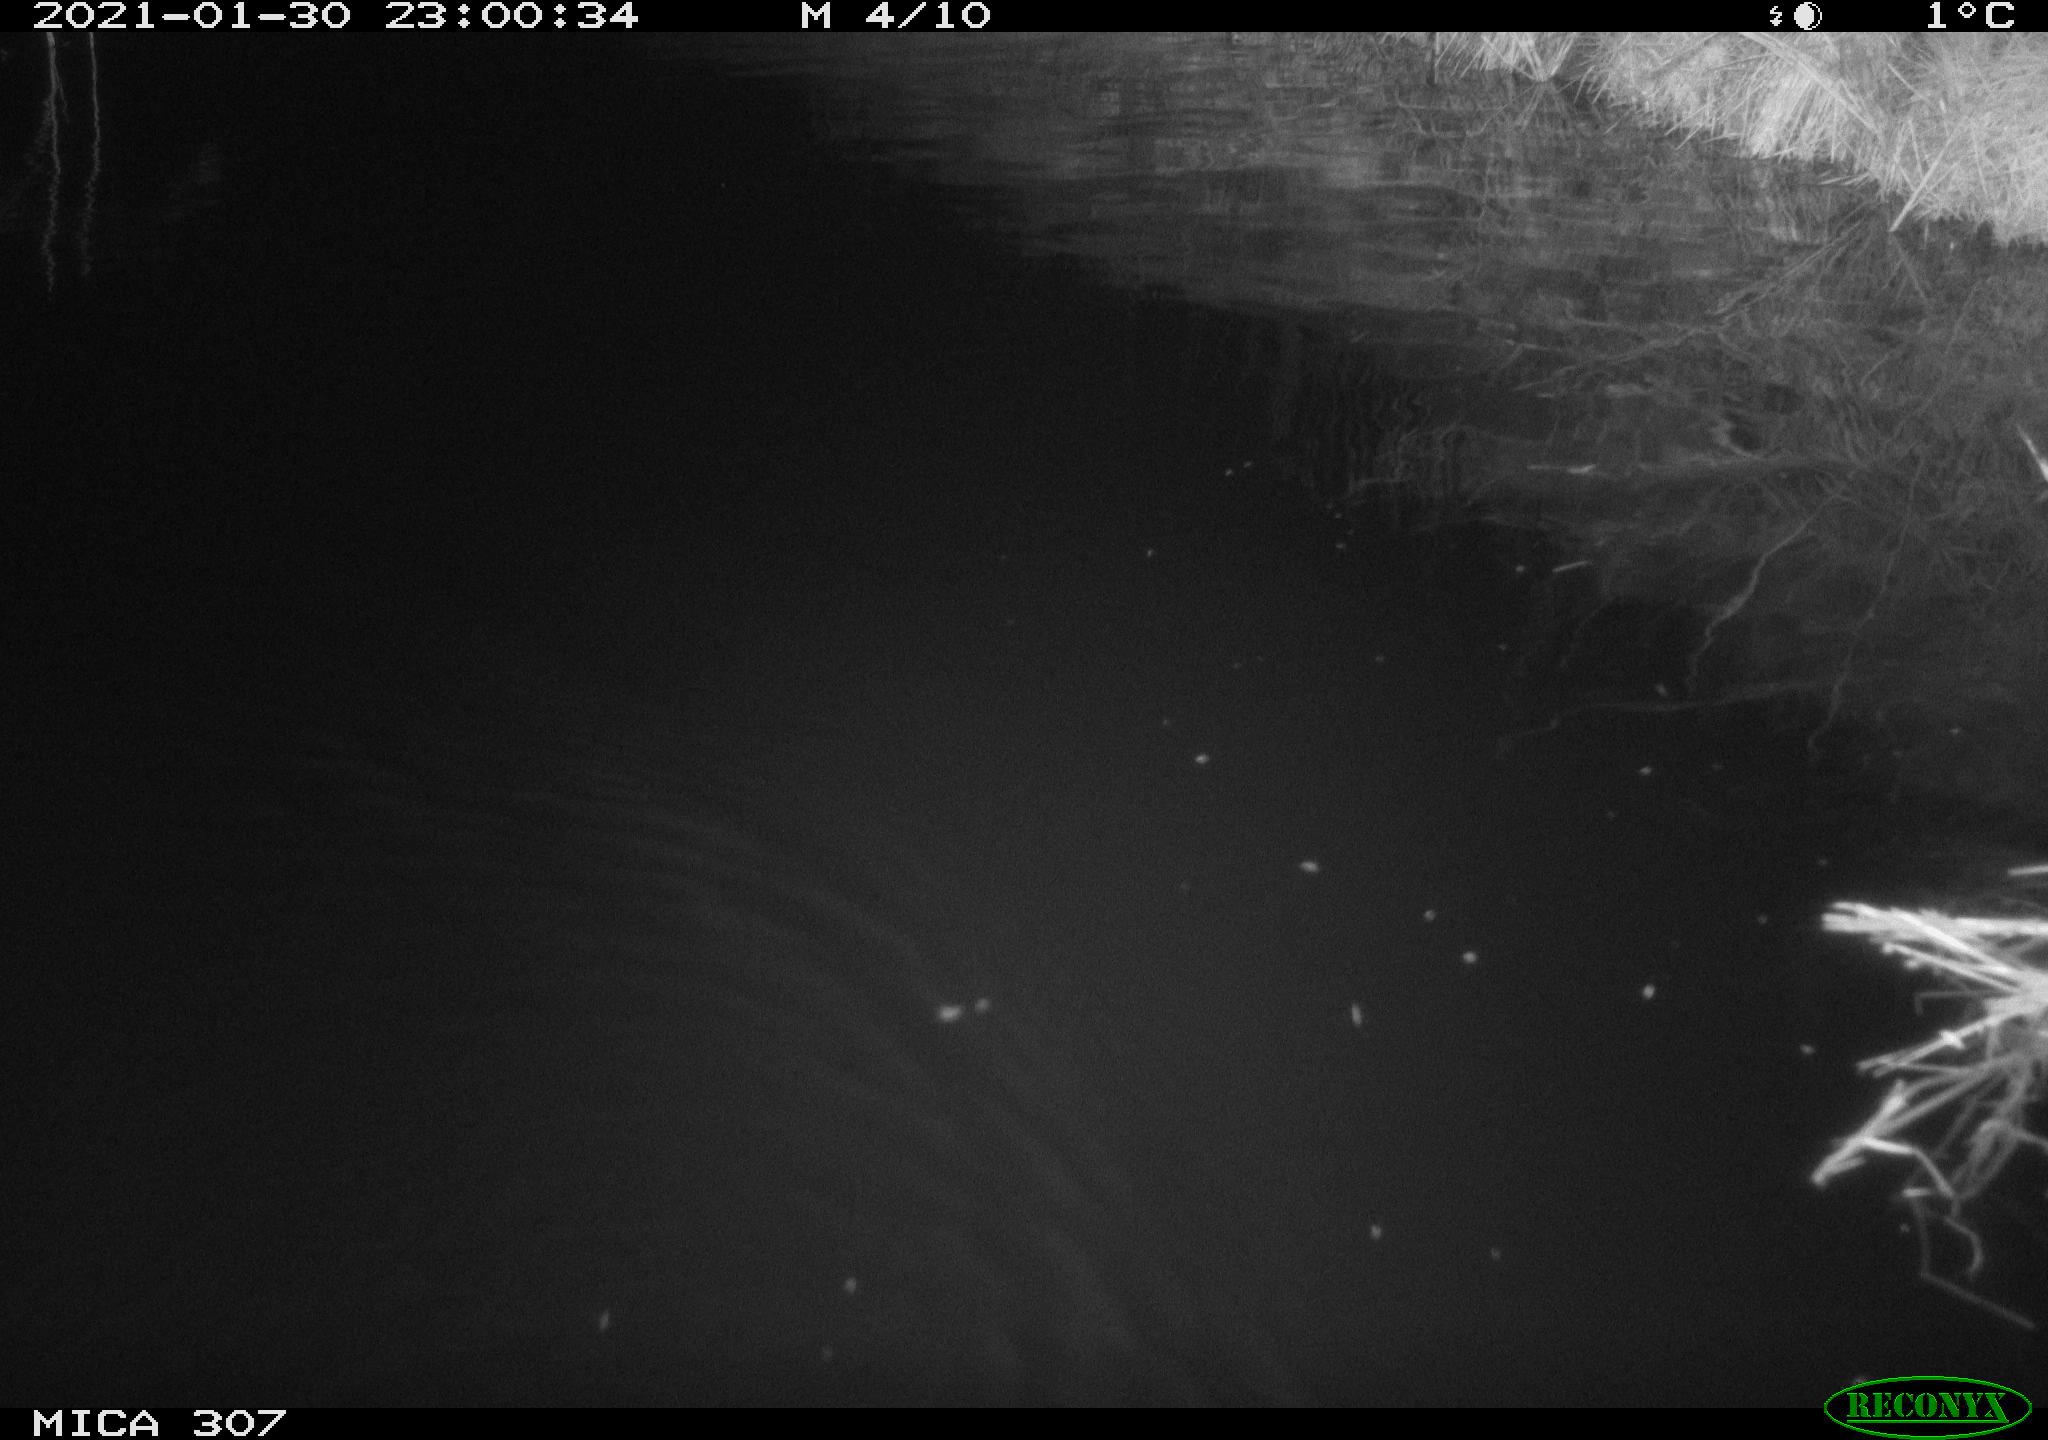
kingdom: Animalia
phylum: Chordata
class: Mammalia
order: Rodentia
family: Cricetidae
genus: Ondatra
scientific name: Ondatra zibethicus
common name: Muskrat
